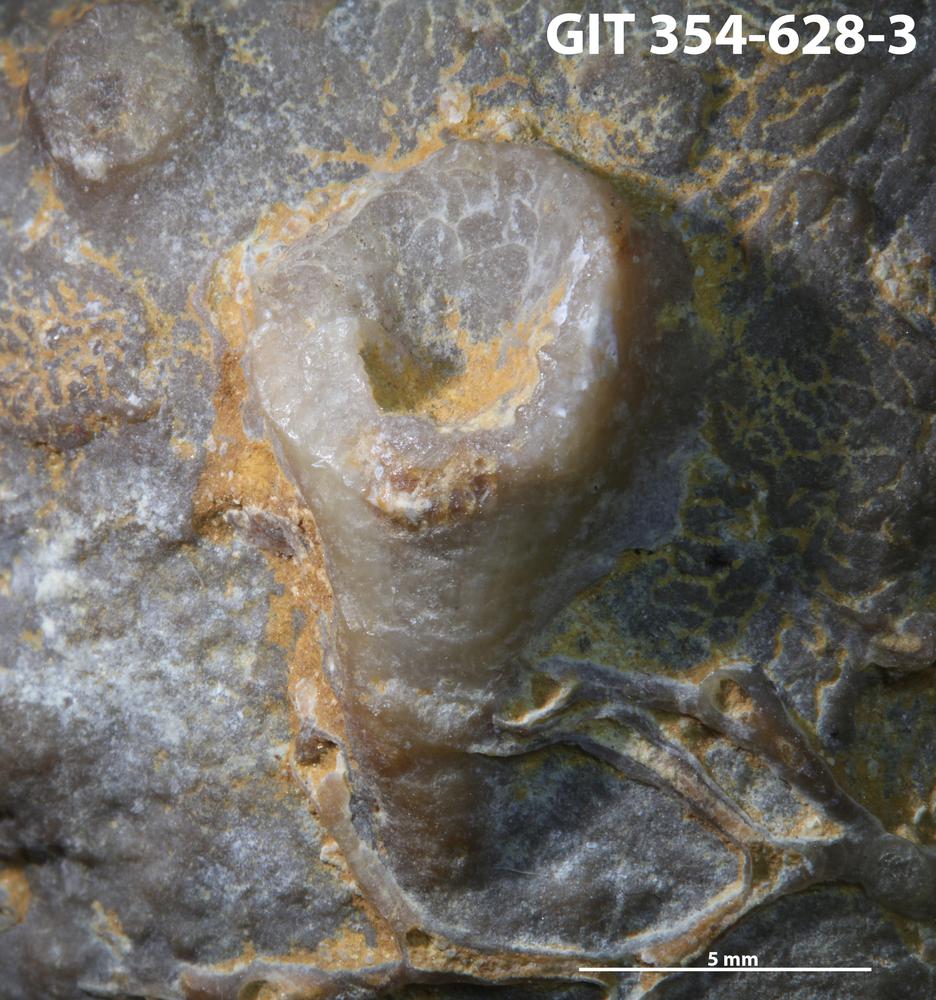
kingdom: Animalia
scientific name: Animalia
